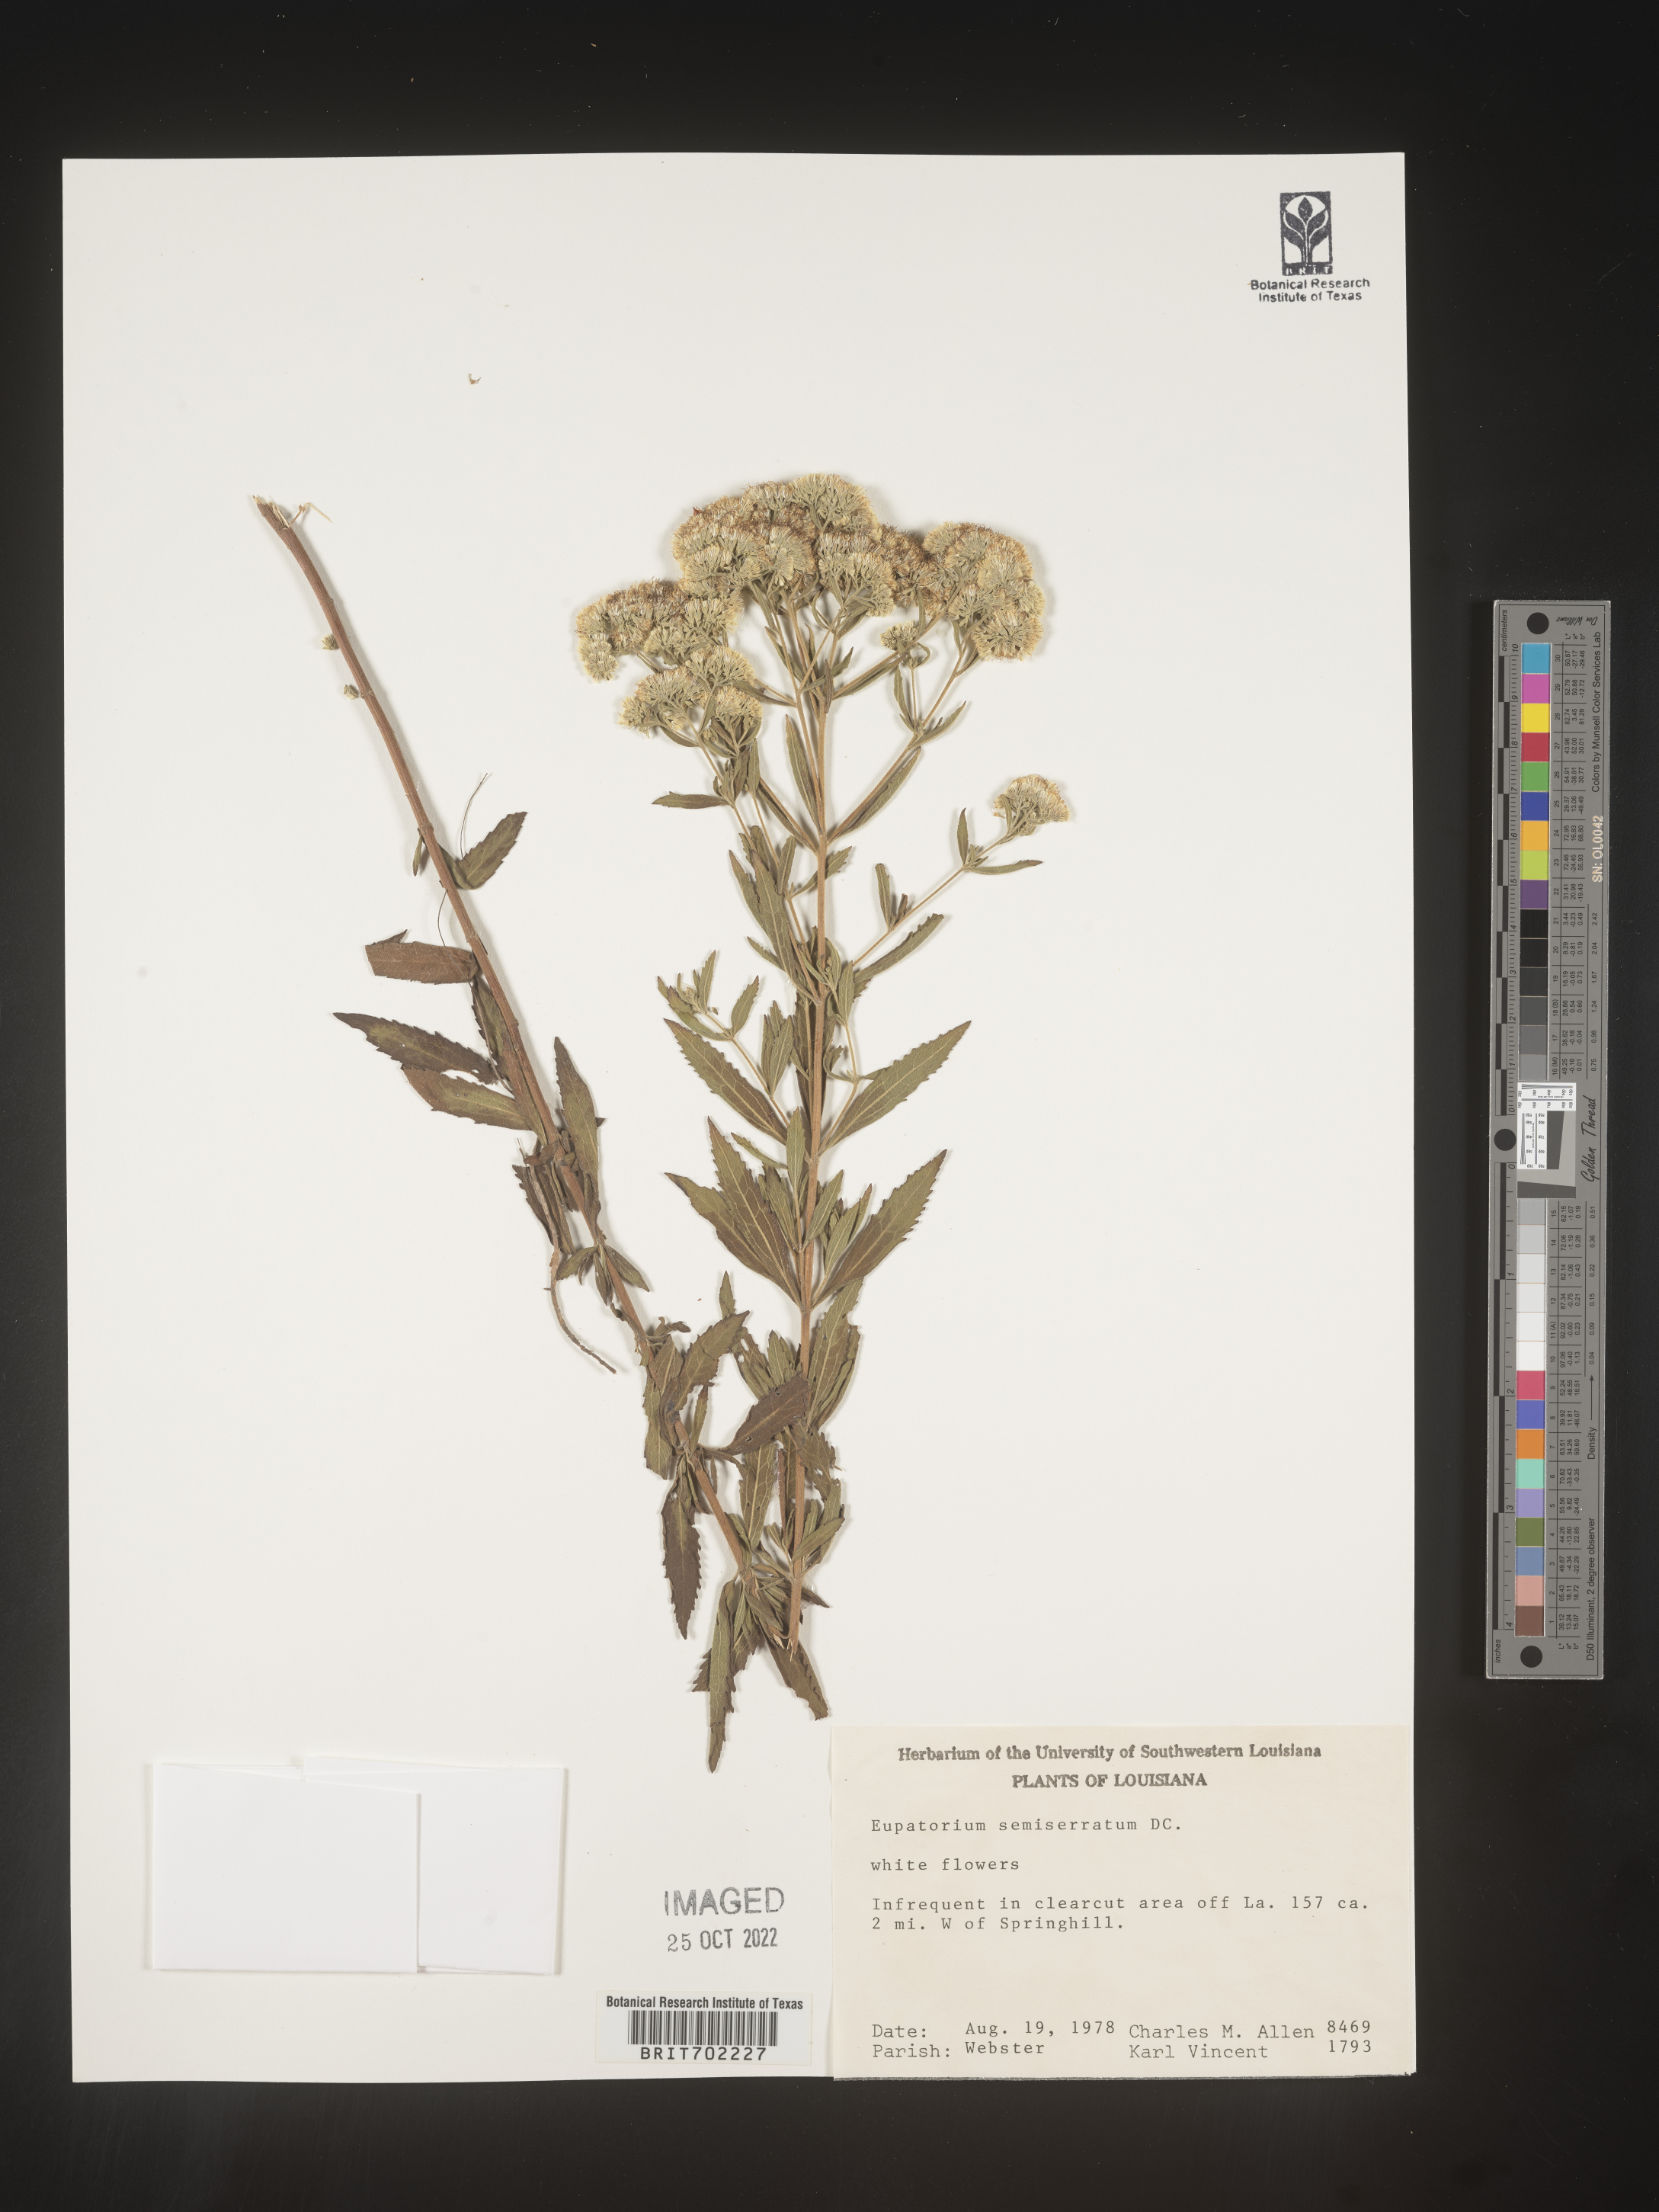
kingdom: Plantae
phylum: Tracheophyta
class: Magnoliopsida
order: Asterales
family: Asteraceae
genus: Eupatorium
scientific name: Eupatorium semiserratum
